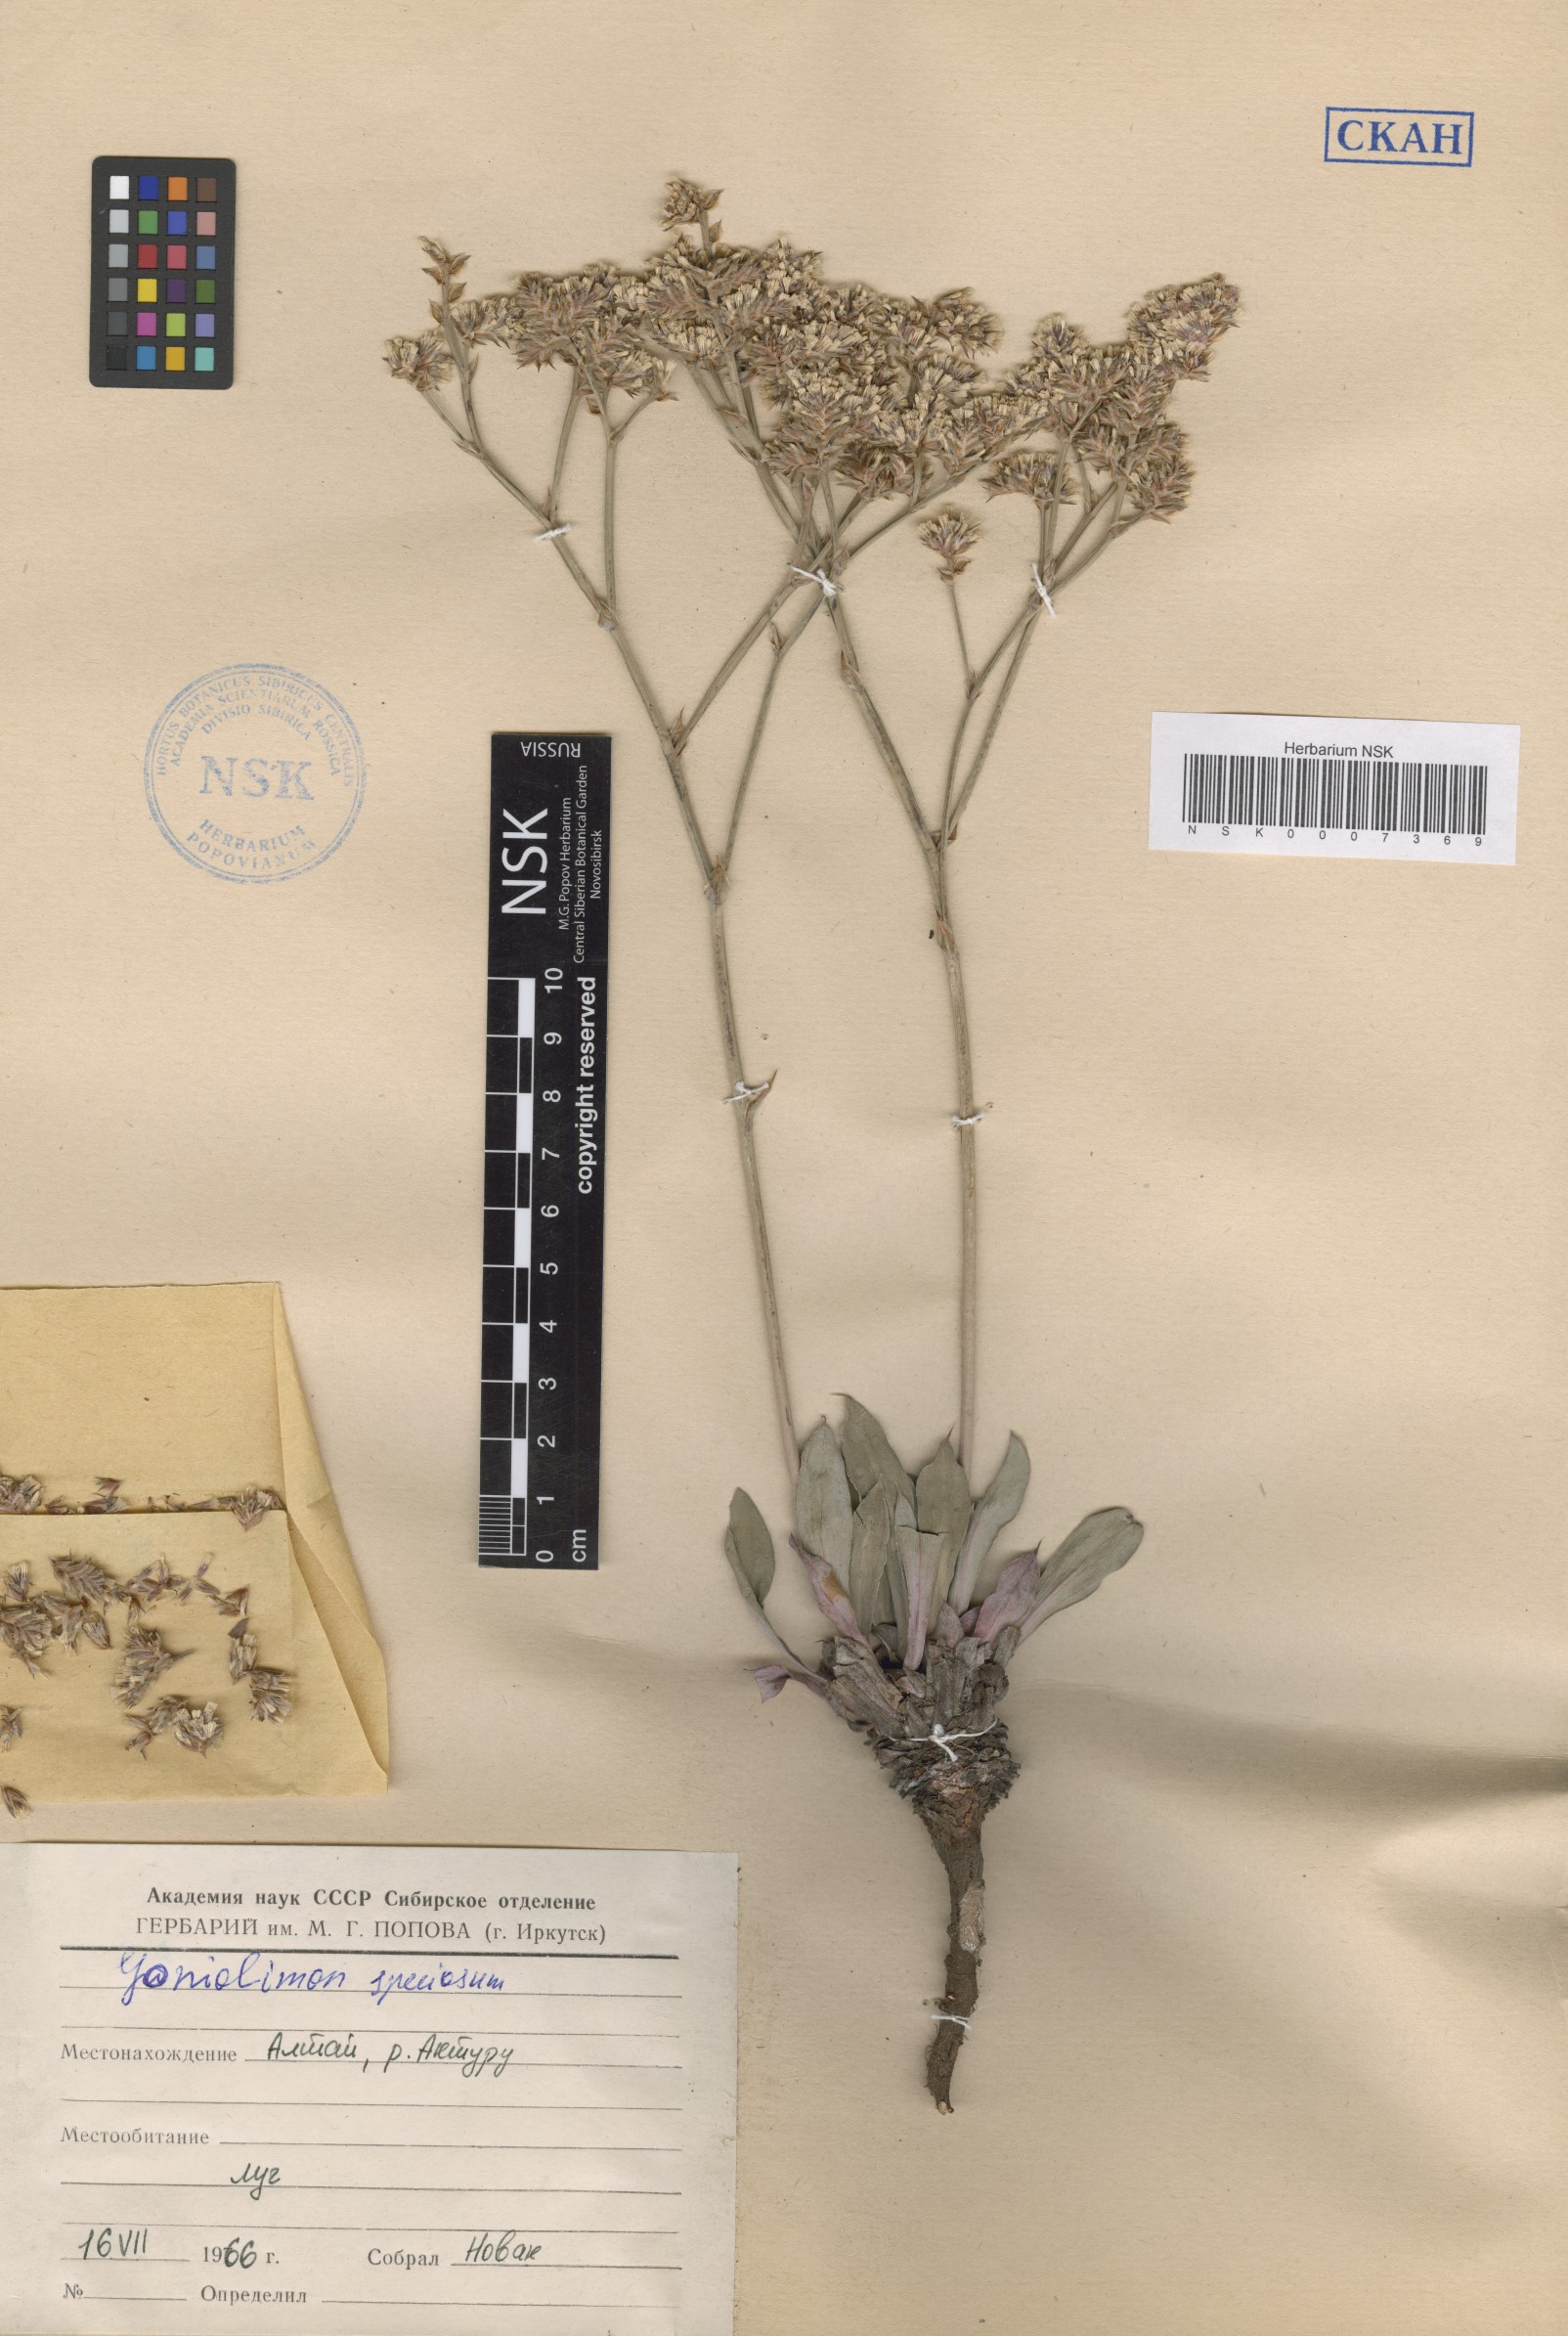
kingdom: Plantae
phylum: Tracheophyta
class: Magnoliopsida
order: Caryophyllales
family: Plumbaginaceae
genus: Goniolimon
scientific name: Goniolimon speciosum
